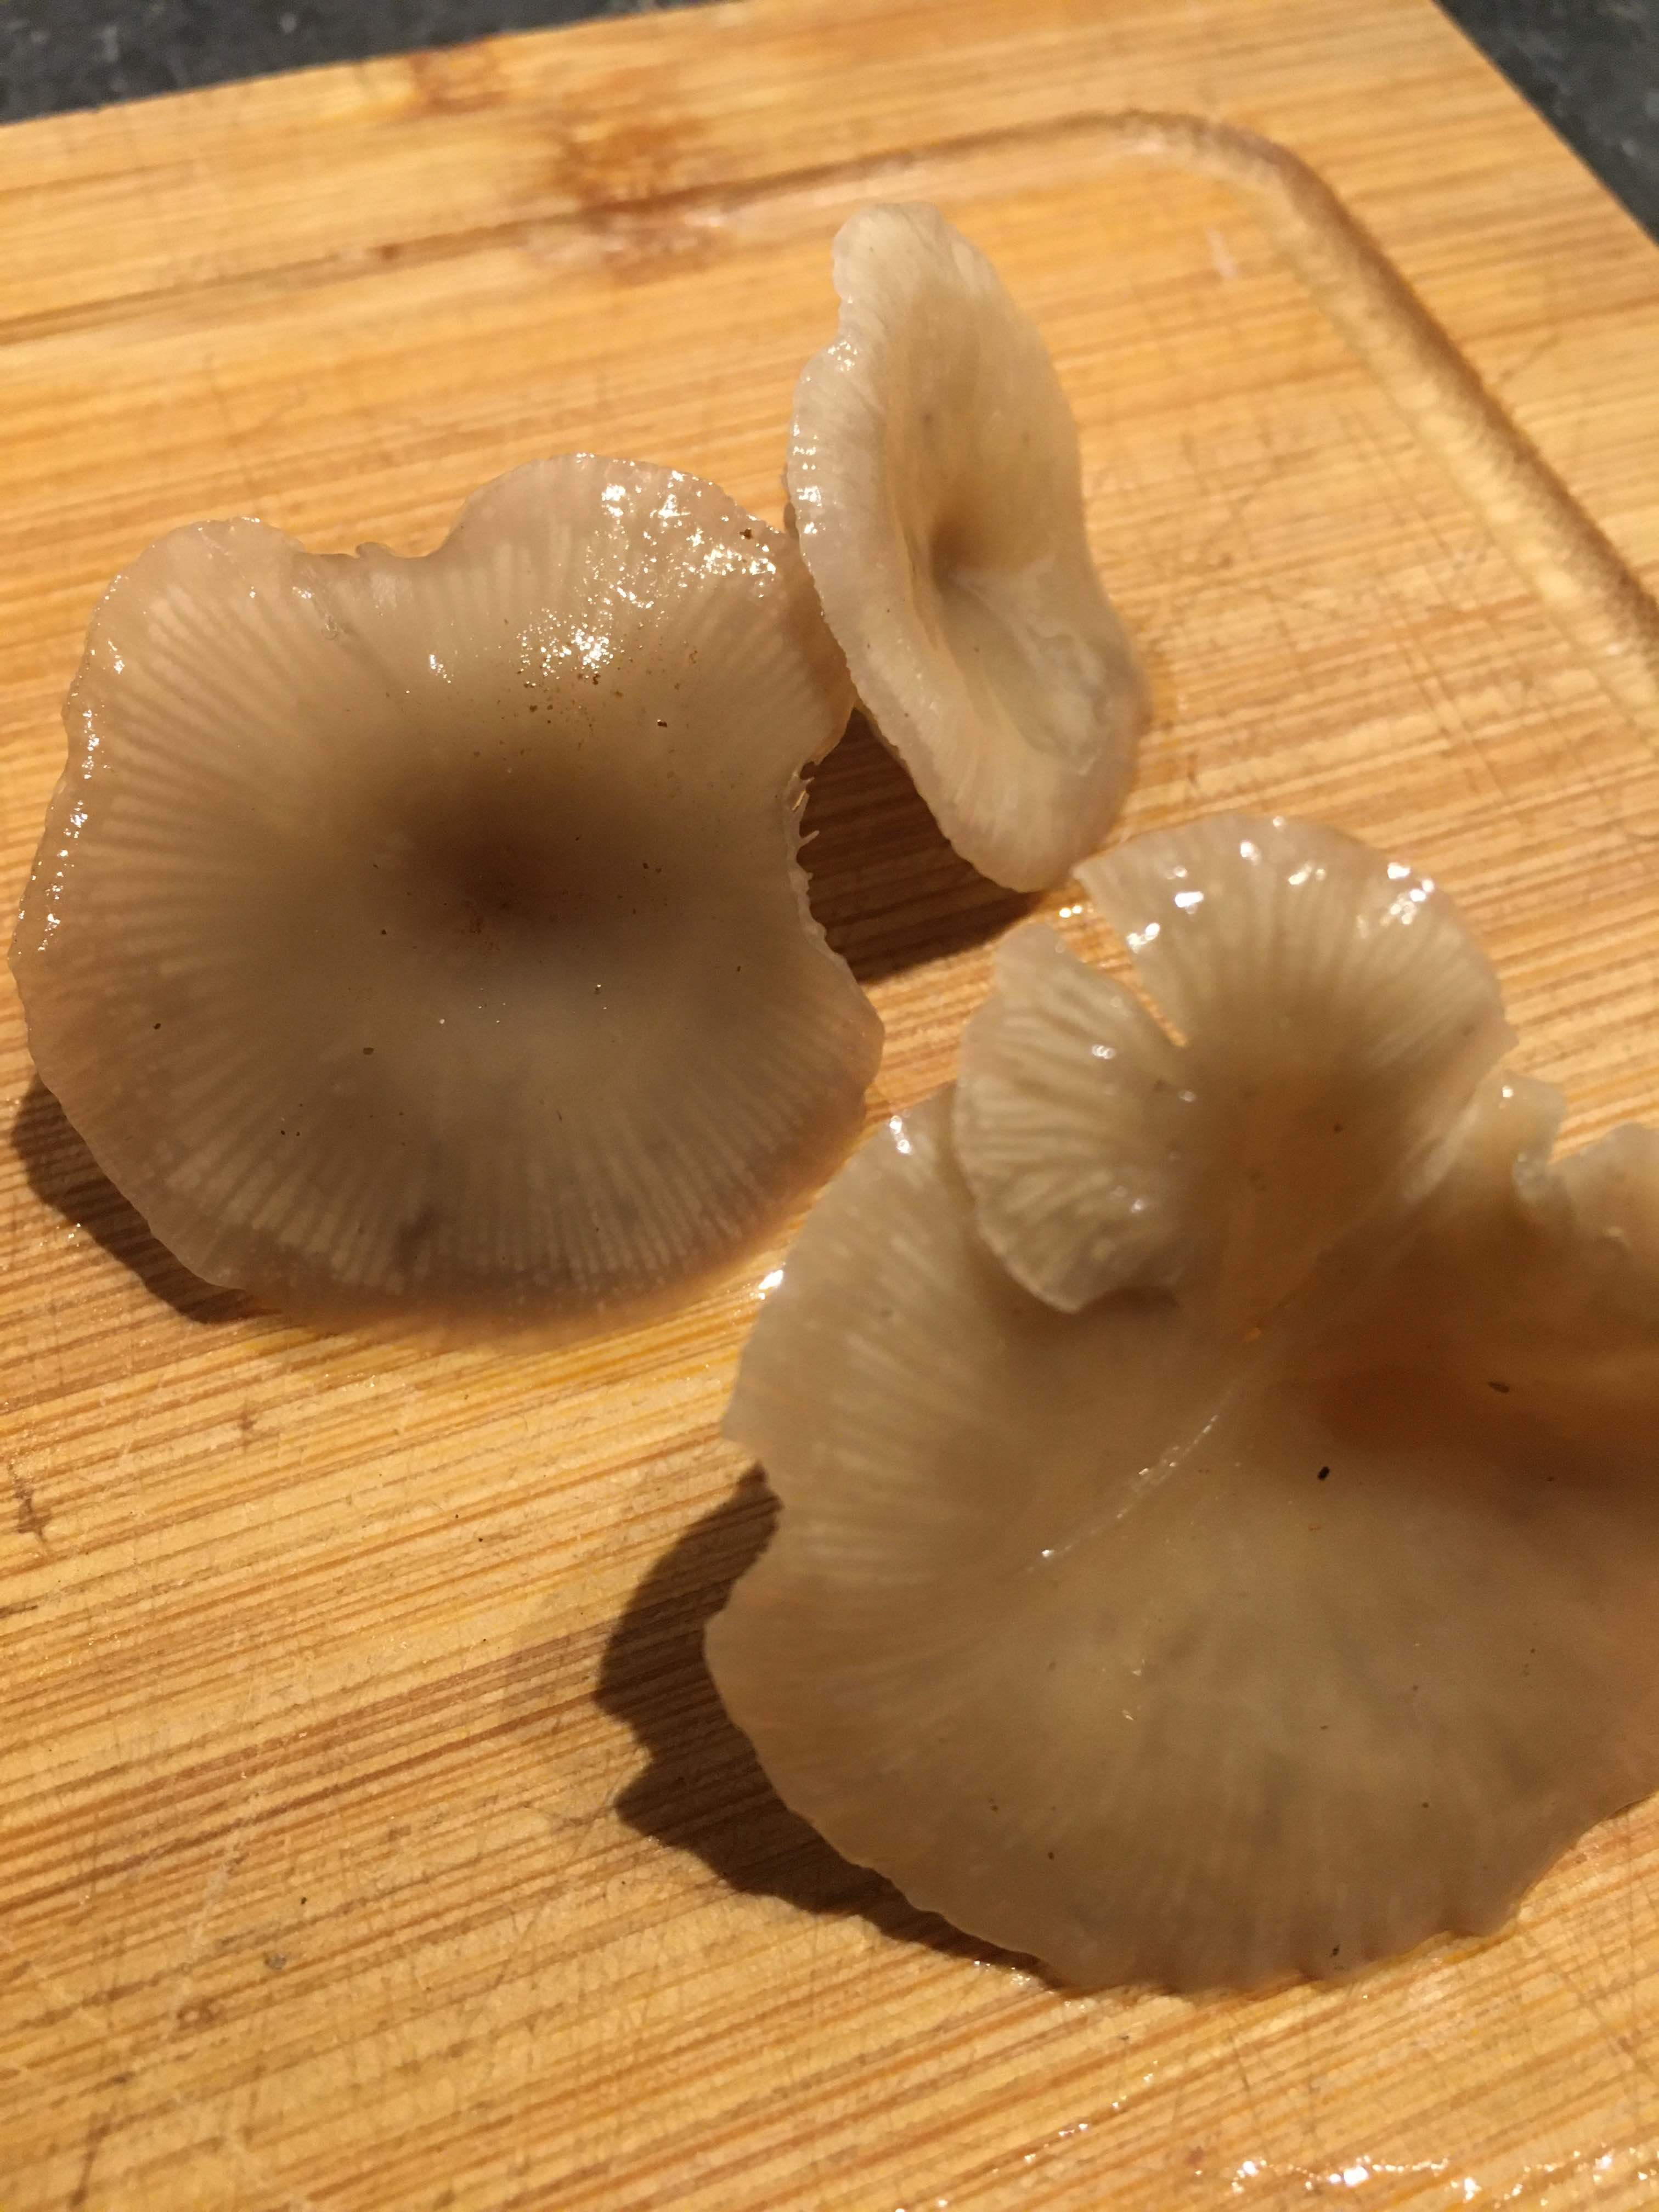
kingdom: Fungi
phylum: Basidiomycota
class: Agaricomycetes
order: Agaricales
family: Tricholomataceae
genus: Clitocybe
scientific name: Clitocybe
